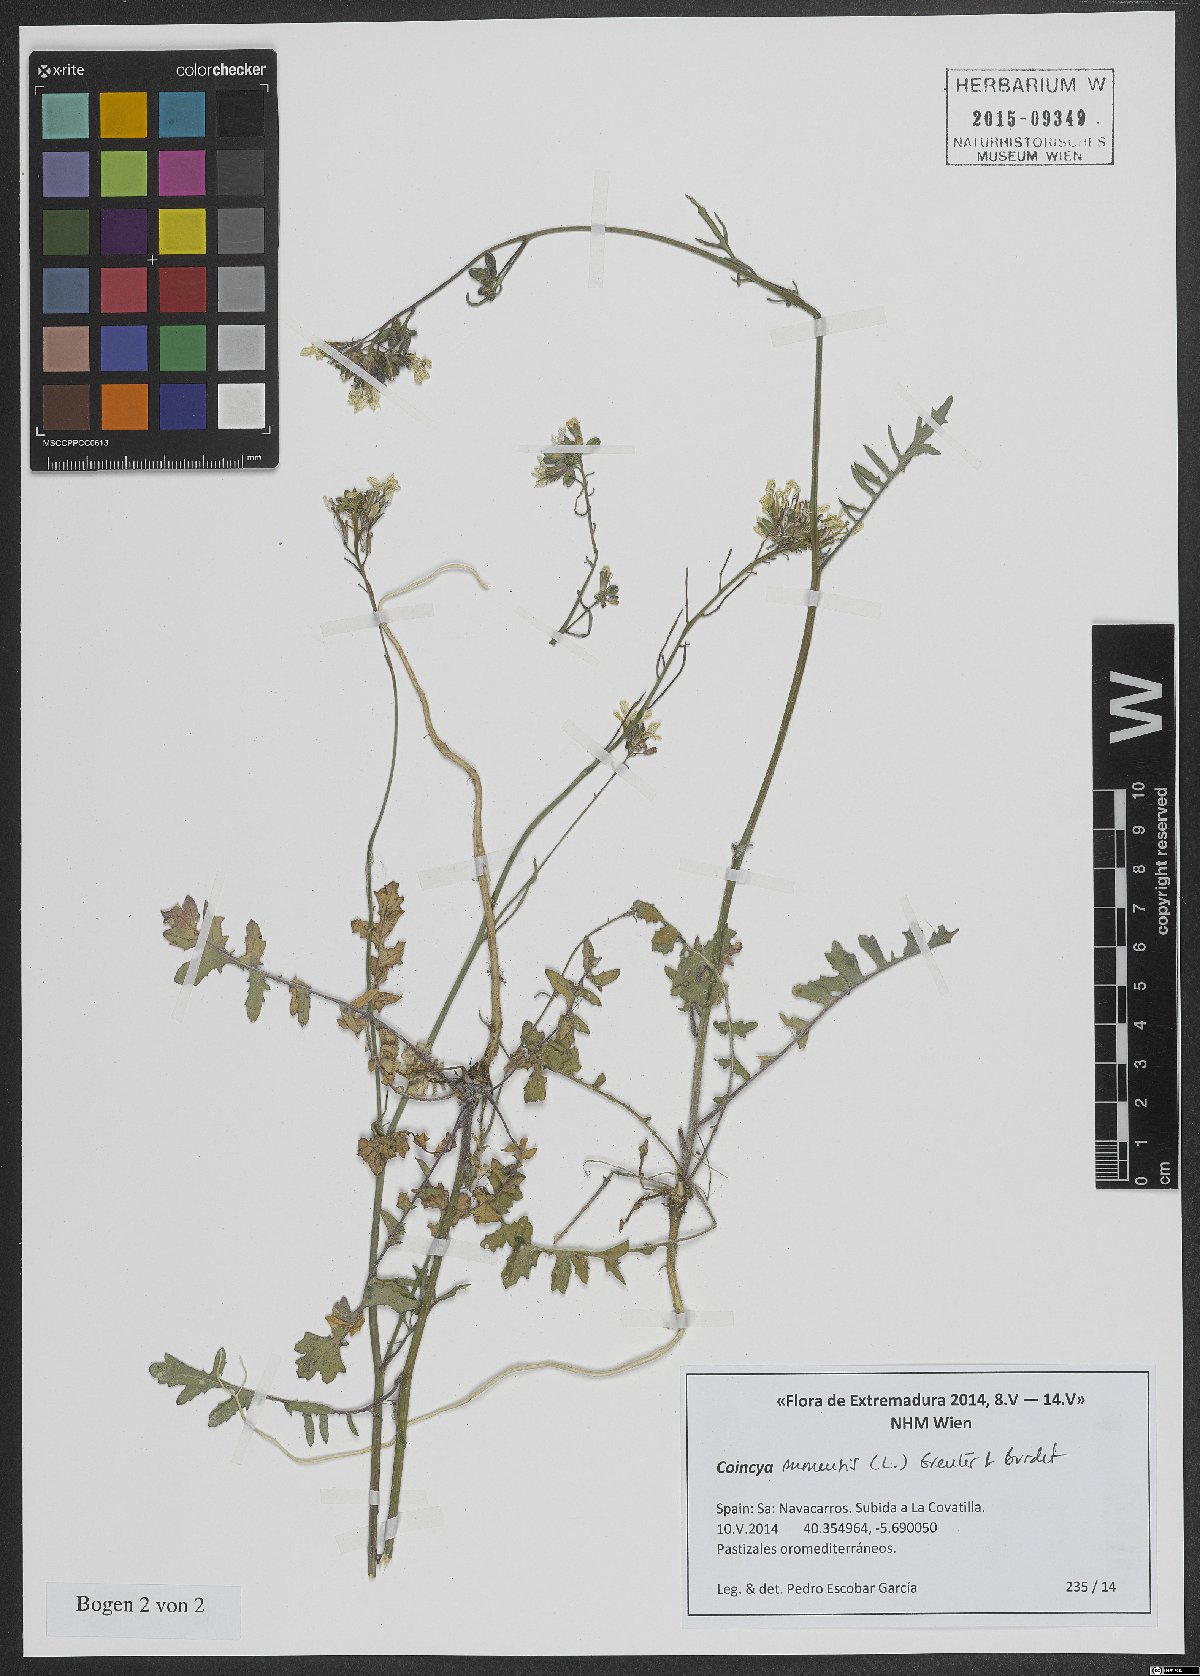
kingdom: Plantae
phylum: Tracheophyta
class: Magnoliopsida
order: Brassicales
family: Brassicaceae
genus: Coincya
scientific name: Coincya monensis
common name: Star-mustard
